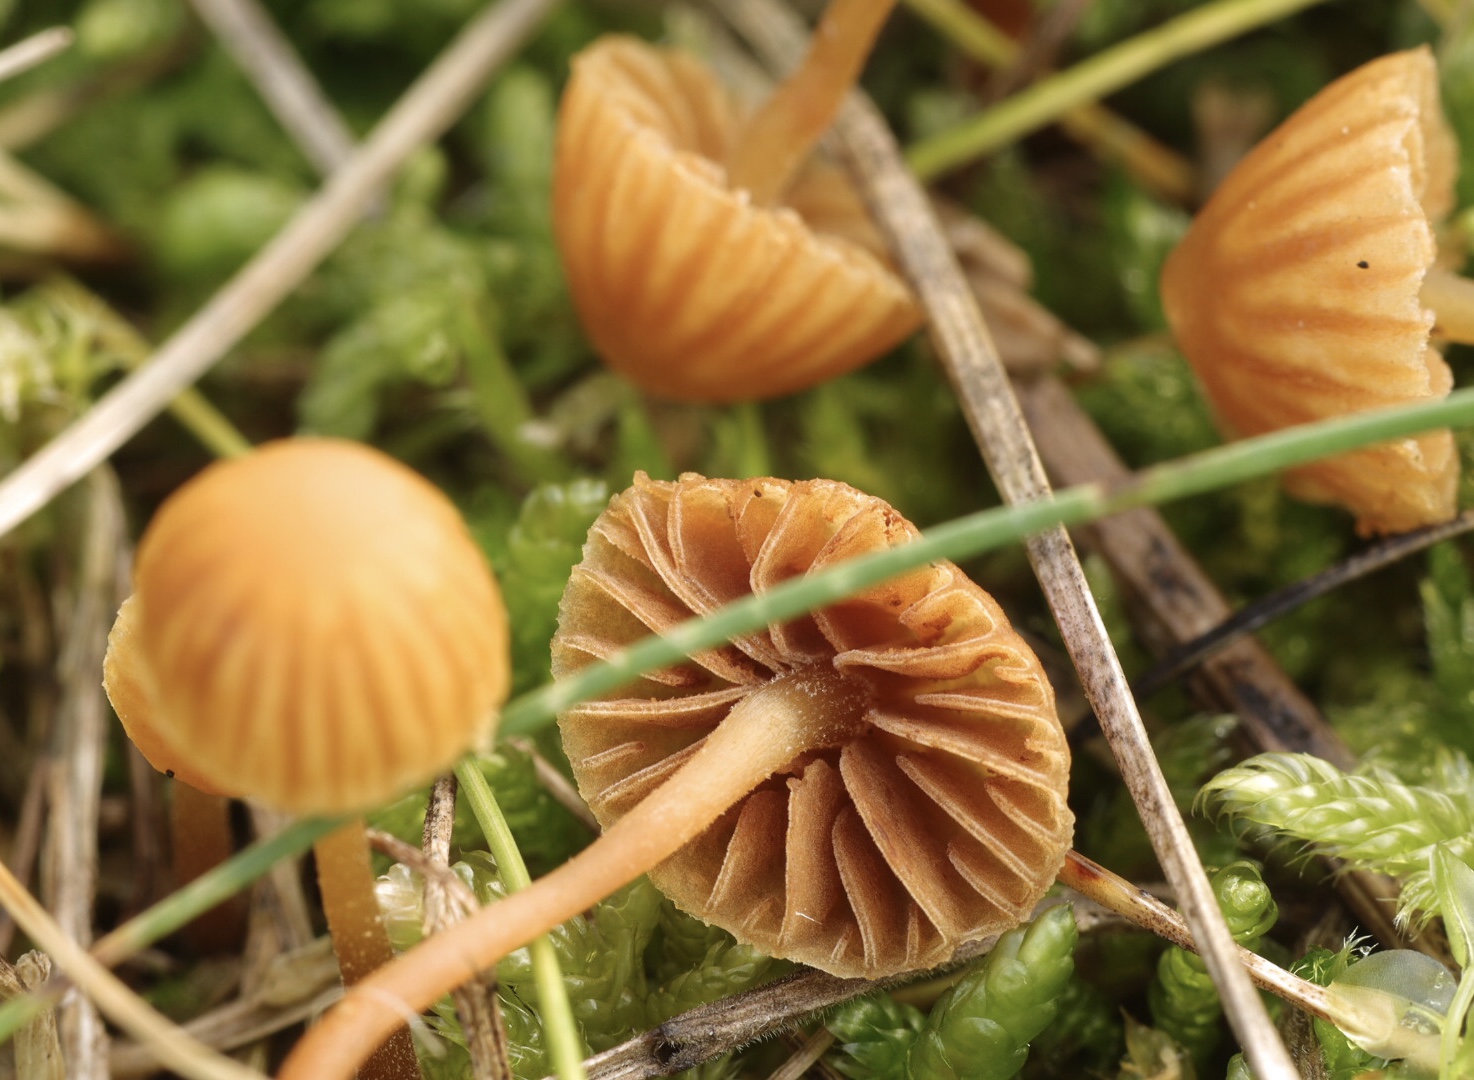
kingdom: Fungi
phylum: Basidiomycota
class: Agaricomycetes
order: Agaricales
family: Hymenogastraceae
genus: Galerina
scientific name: Galerina vittiformis
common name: Hairy leg bell
